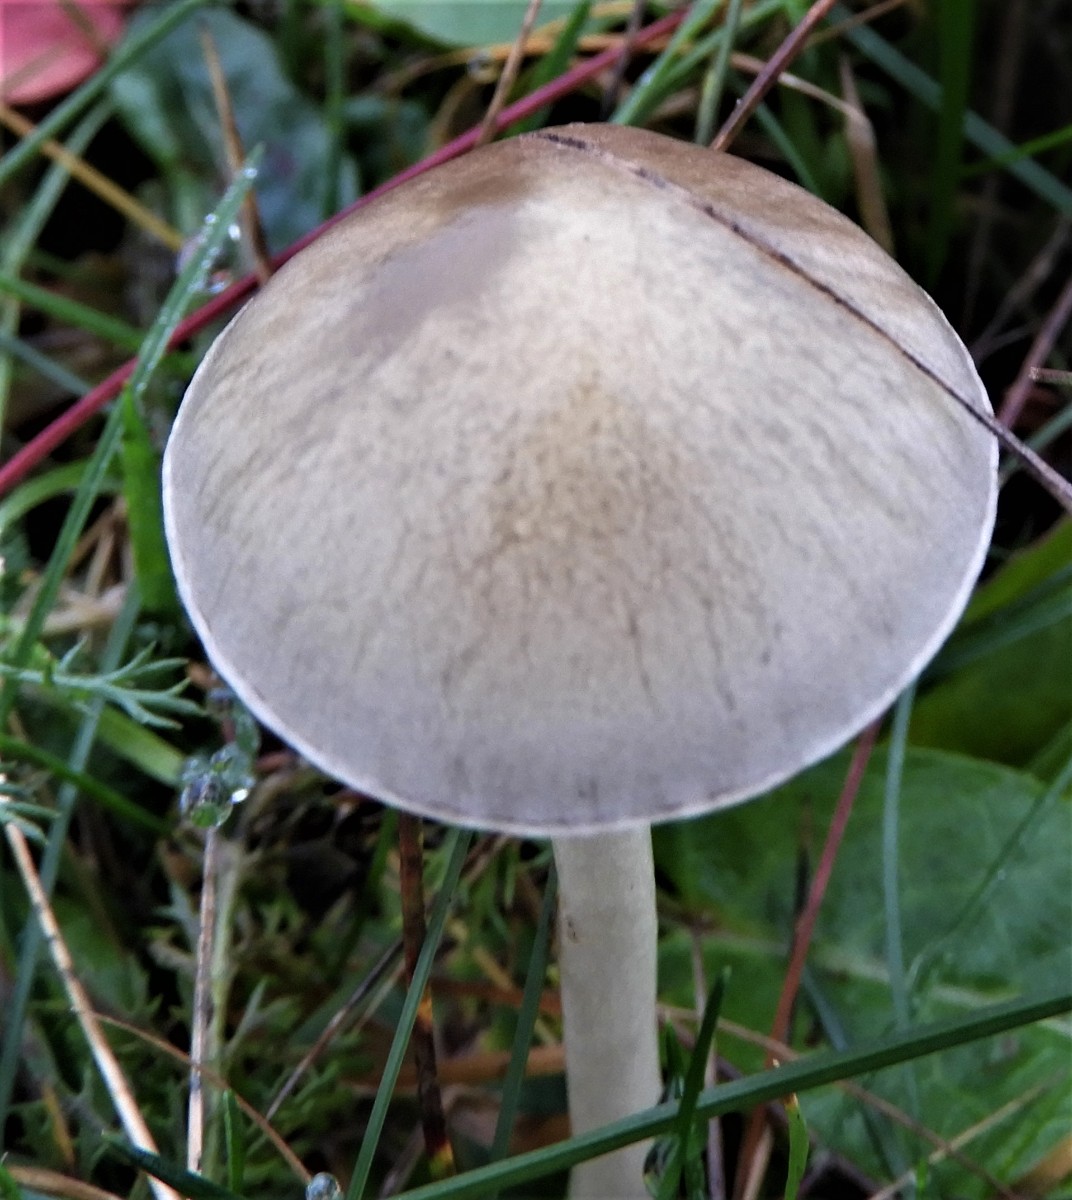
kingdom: Fungi
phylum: Basidiomycota
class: Agaricomycetes
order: Agaricales
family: Strophariaceae
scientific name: Strophariaceae
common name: bredbladfamilien
